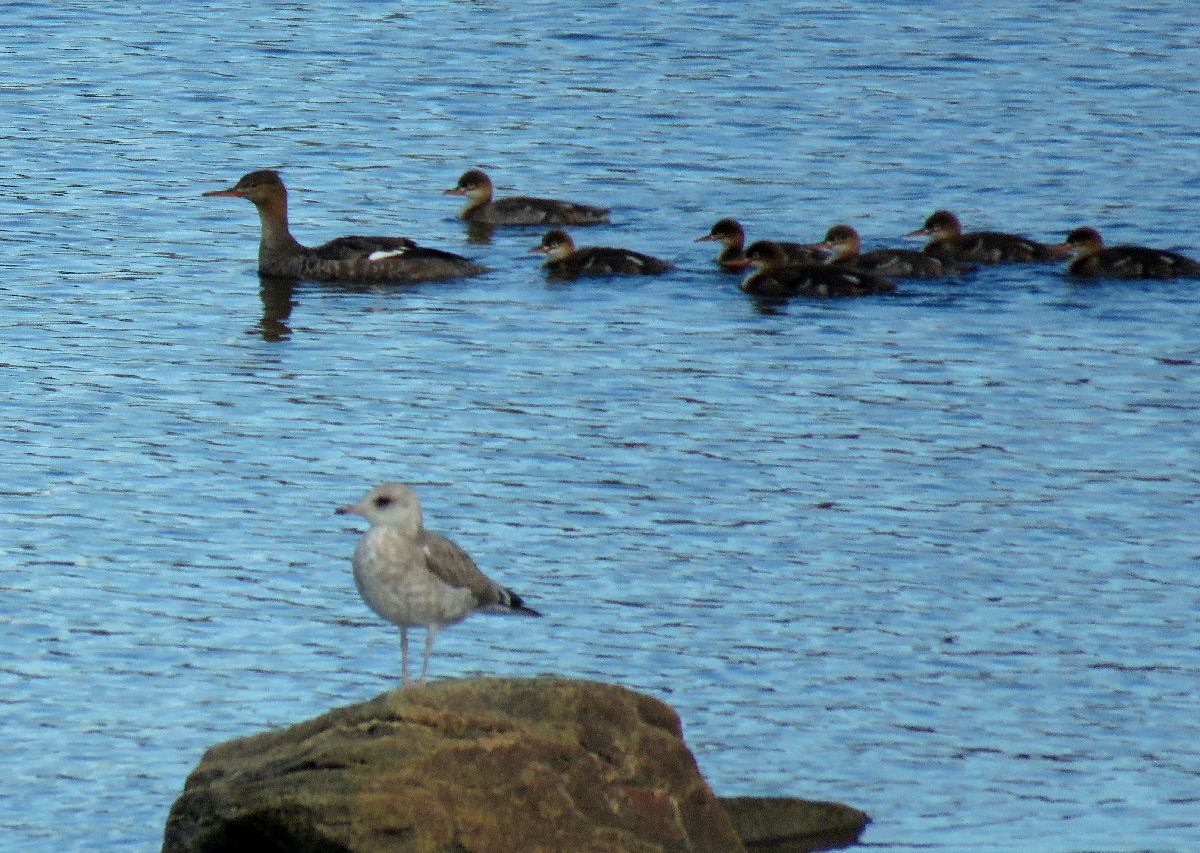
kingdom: Animalia
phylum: Chordata
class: Aves
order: Anseriformes
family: Anatidae
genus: Mergus
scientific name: Mergus serrator
